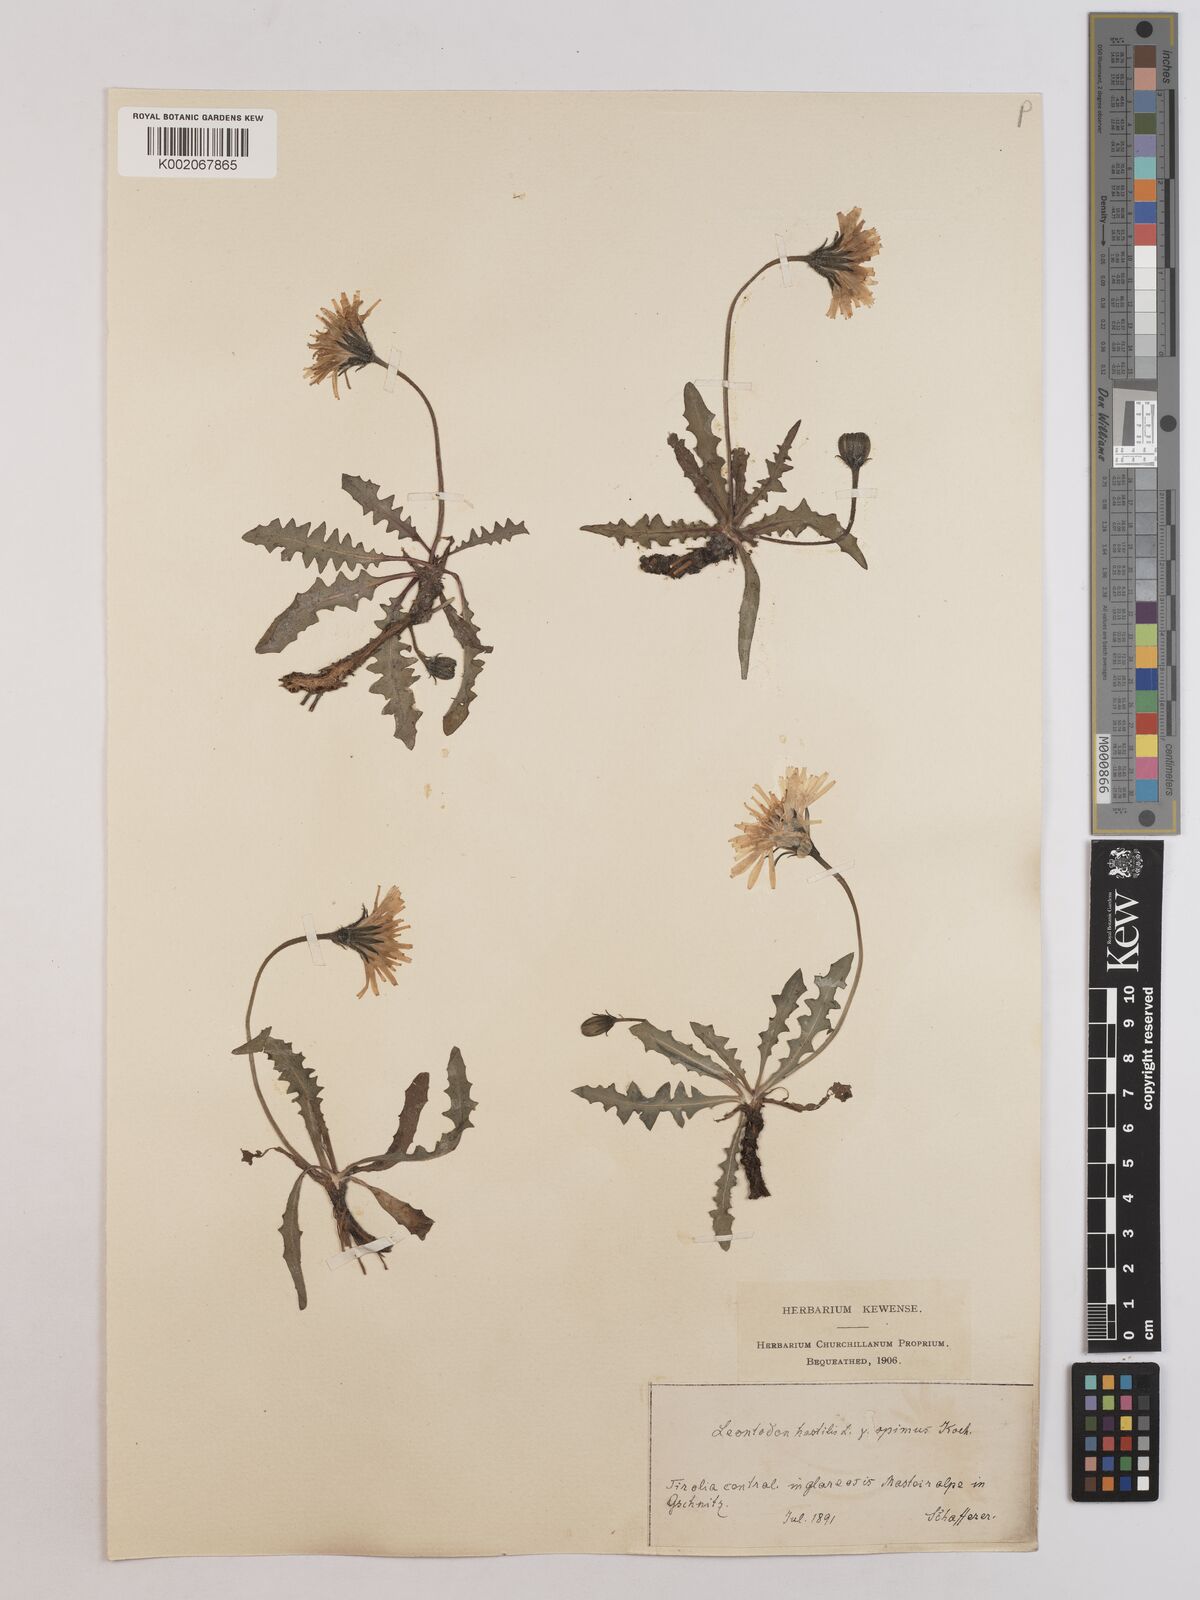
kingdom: Plantae
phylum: Tracheophyta
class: Magnoliopsida
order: Asterales
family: Asteraceae
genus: Leontodon
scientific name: Leontodon hispidus
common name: Rough hawkbit
